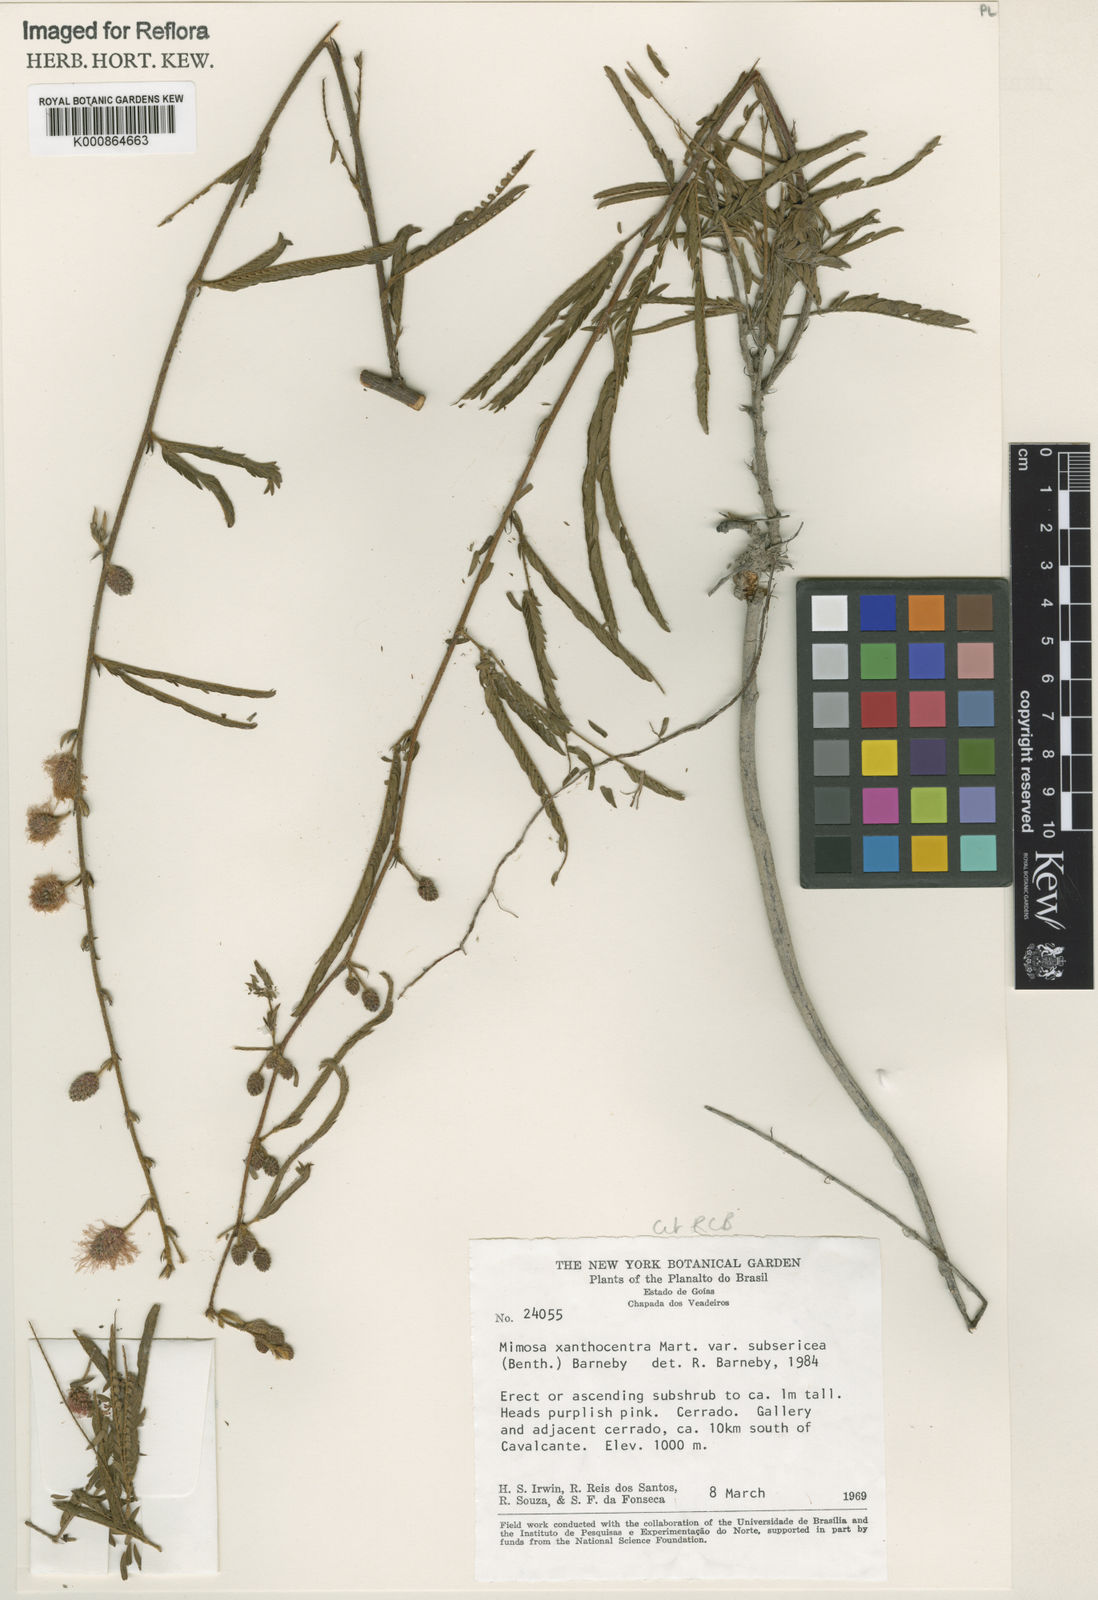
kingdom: Plantae
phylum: Tracheophyta
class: Magnoliopsida
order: Fabales
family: Fabaceae
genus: Mimosa
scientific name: Mimosa xanthocentra
